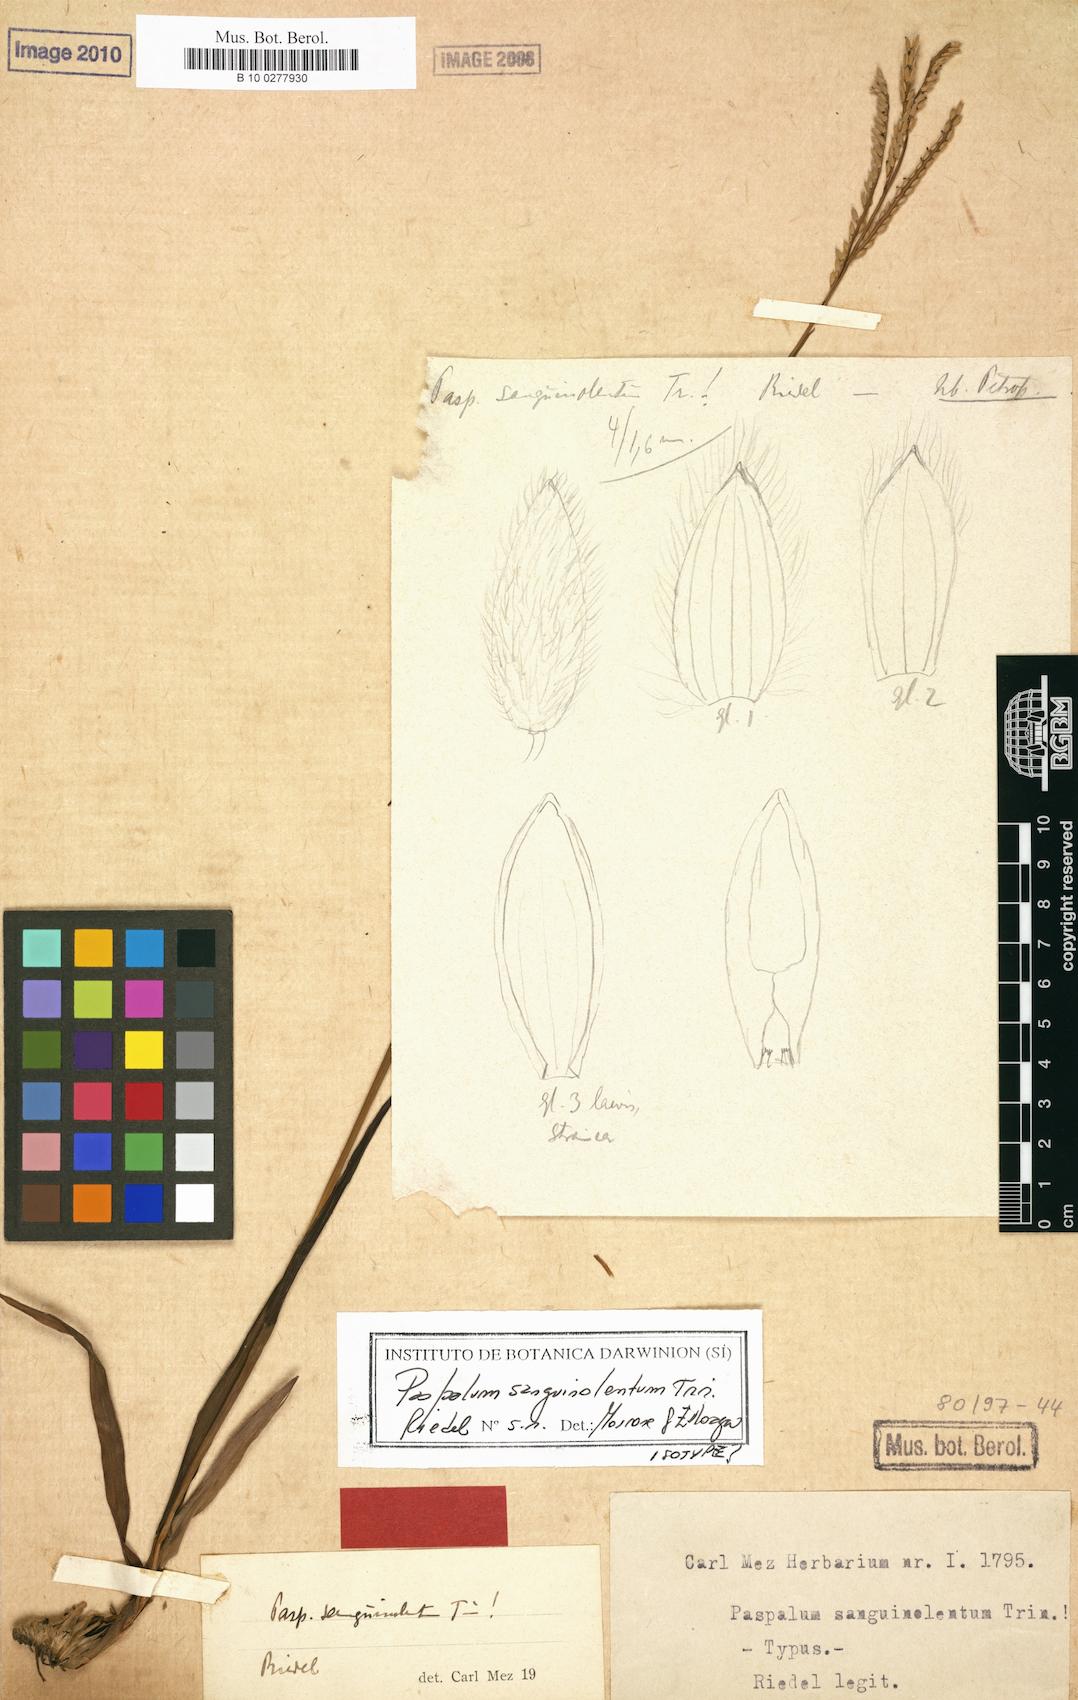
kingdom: Plantae
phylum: Tracheophyta
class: Liliopsida
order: Poales
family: Poaceae
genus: Paspalum
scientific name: Paspalum erianthum
